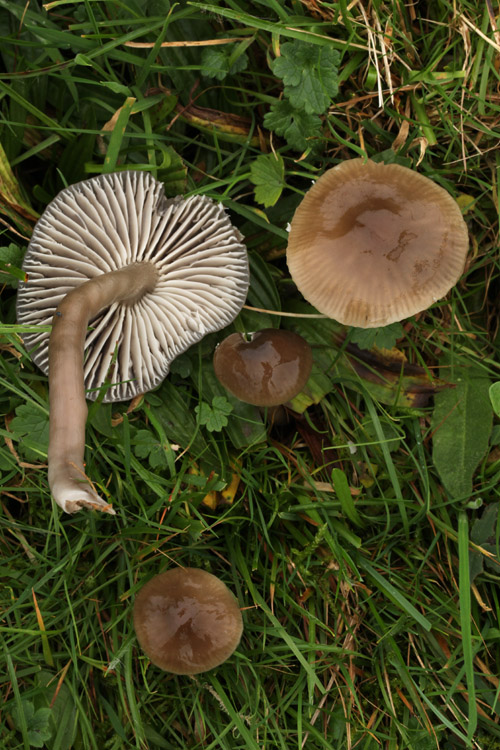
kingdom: Fungi
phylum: Basidiomycota
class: Agaricomycetes
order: Agaricales
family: Hygrophoraceae
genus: Gliophorus
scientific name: Gliophorus irrigatus
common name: slimet vokshat
